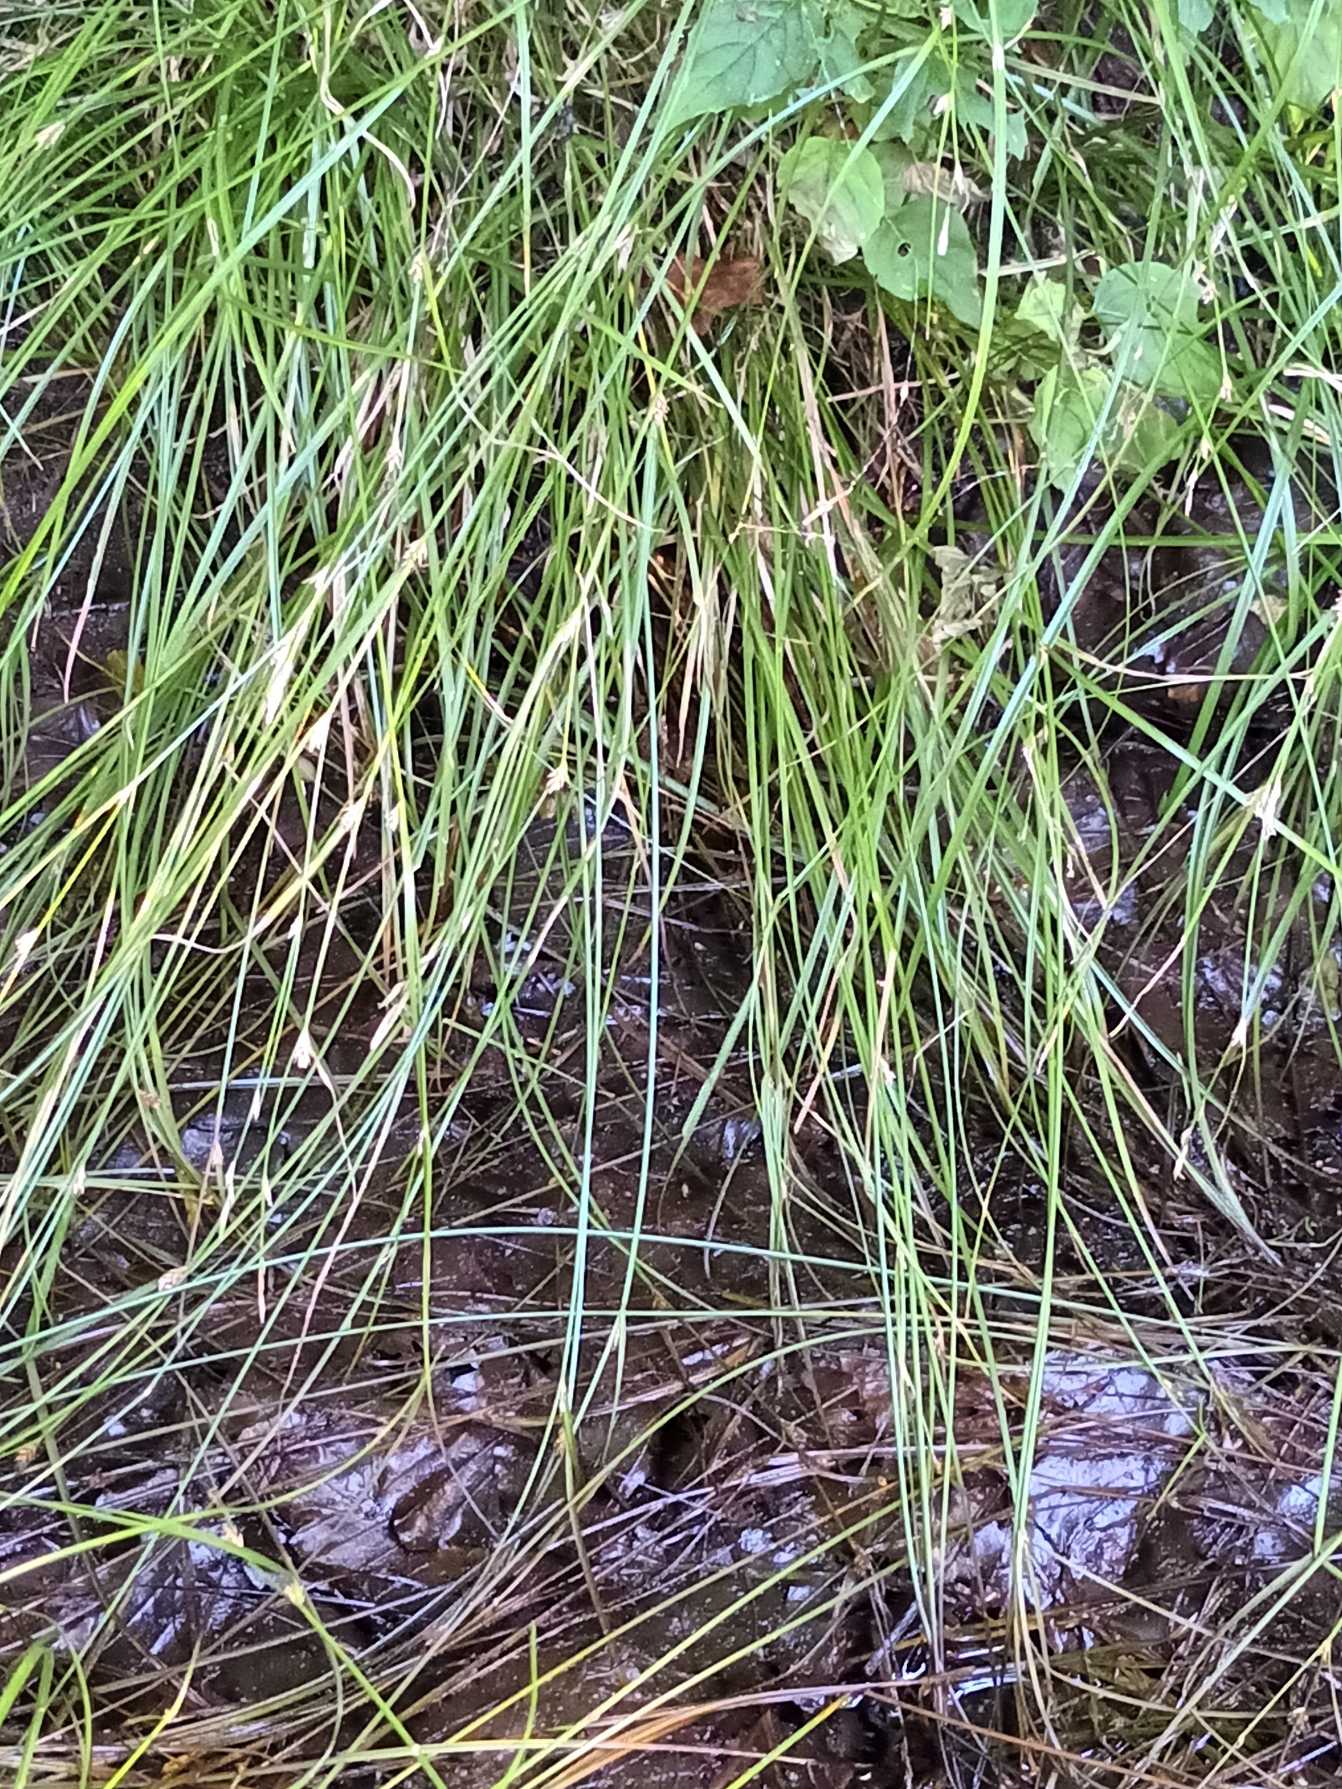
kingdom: Plantae
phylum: Tracheophyta
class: Liliopsida
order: Poales
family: Cyperaceae
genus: Carex
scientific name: Carex remota
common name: Akselblomstret star
